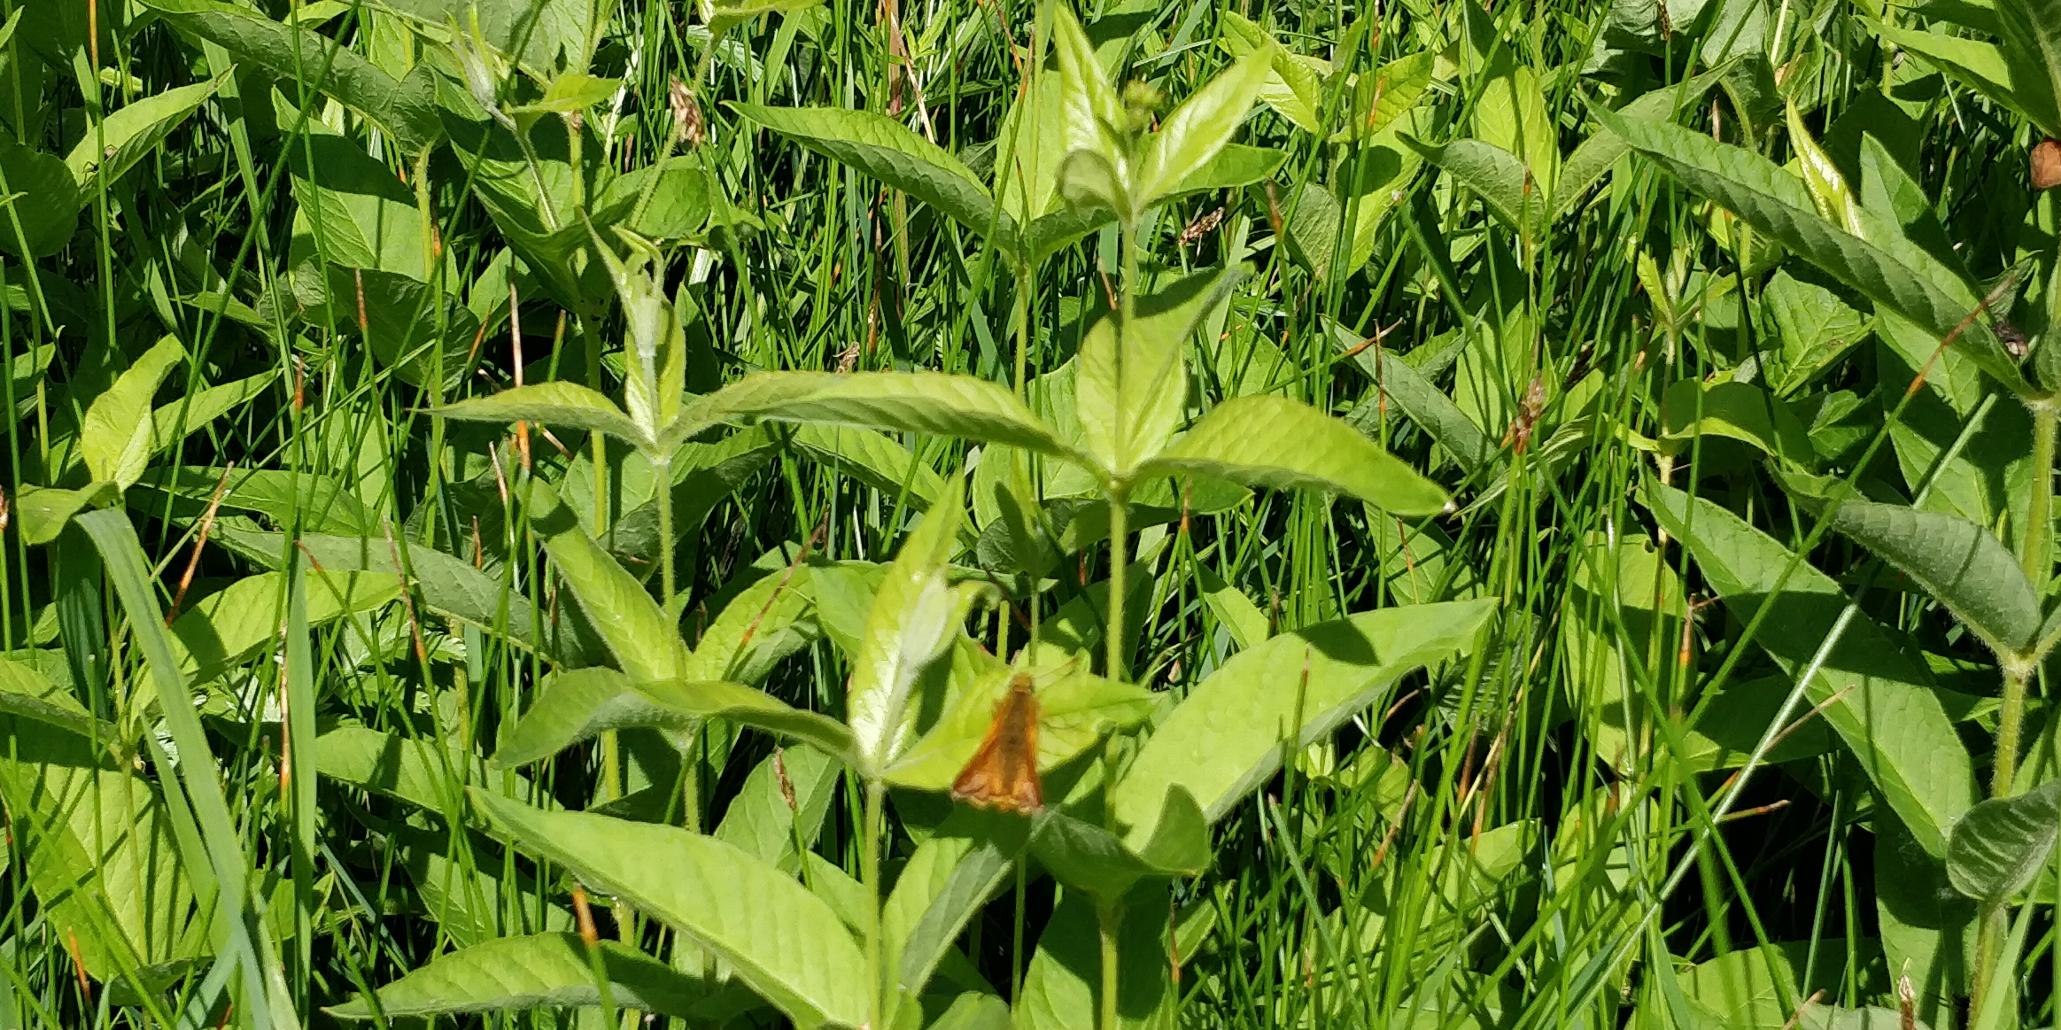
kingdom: Animalia
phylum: Arthropoda
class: Insecta
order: Lepidoptera
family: Hesperiidae
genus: Ochlodes
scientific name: Ochlodes venata
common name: Stor bredpande
